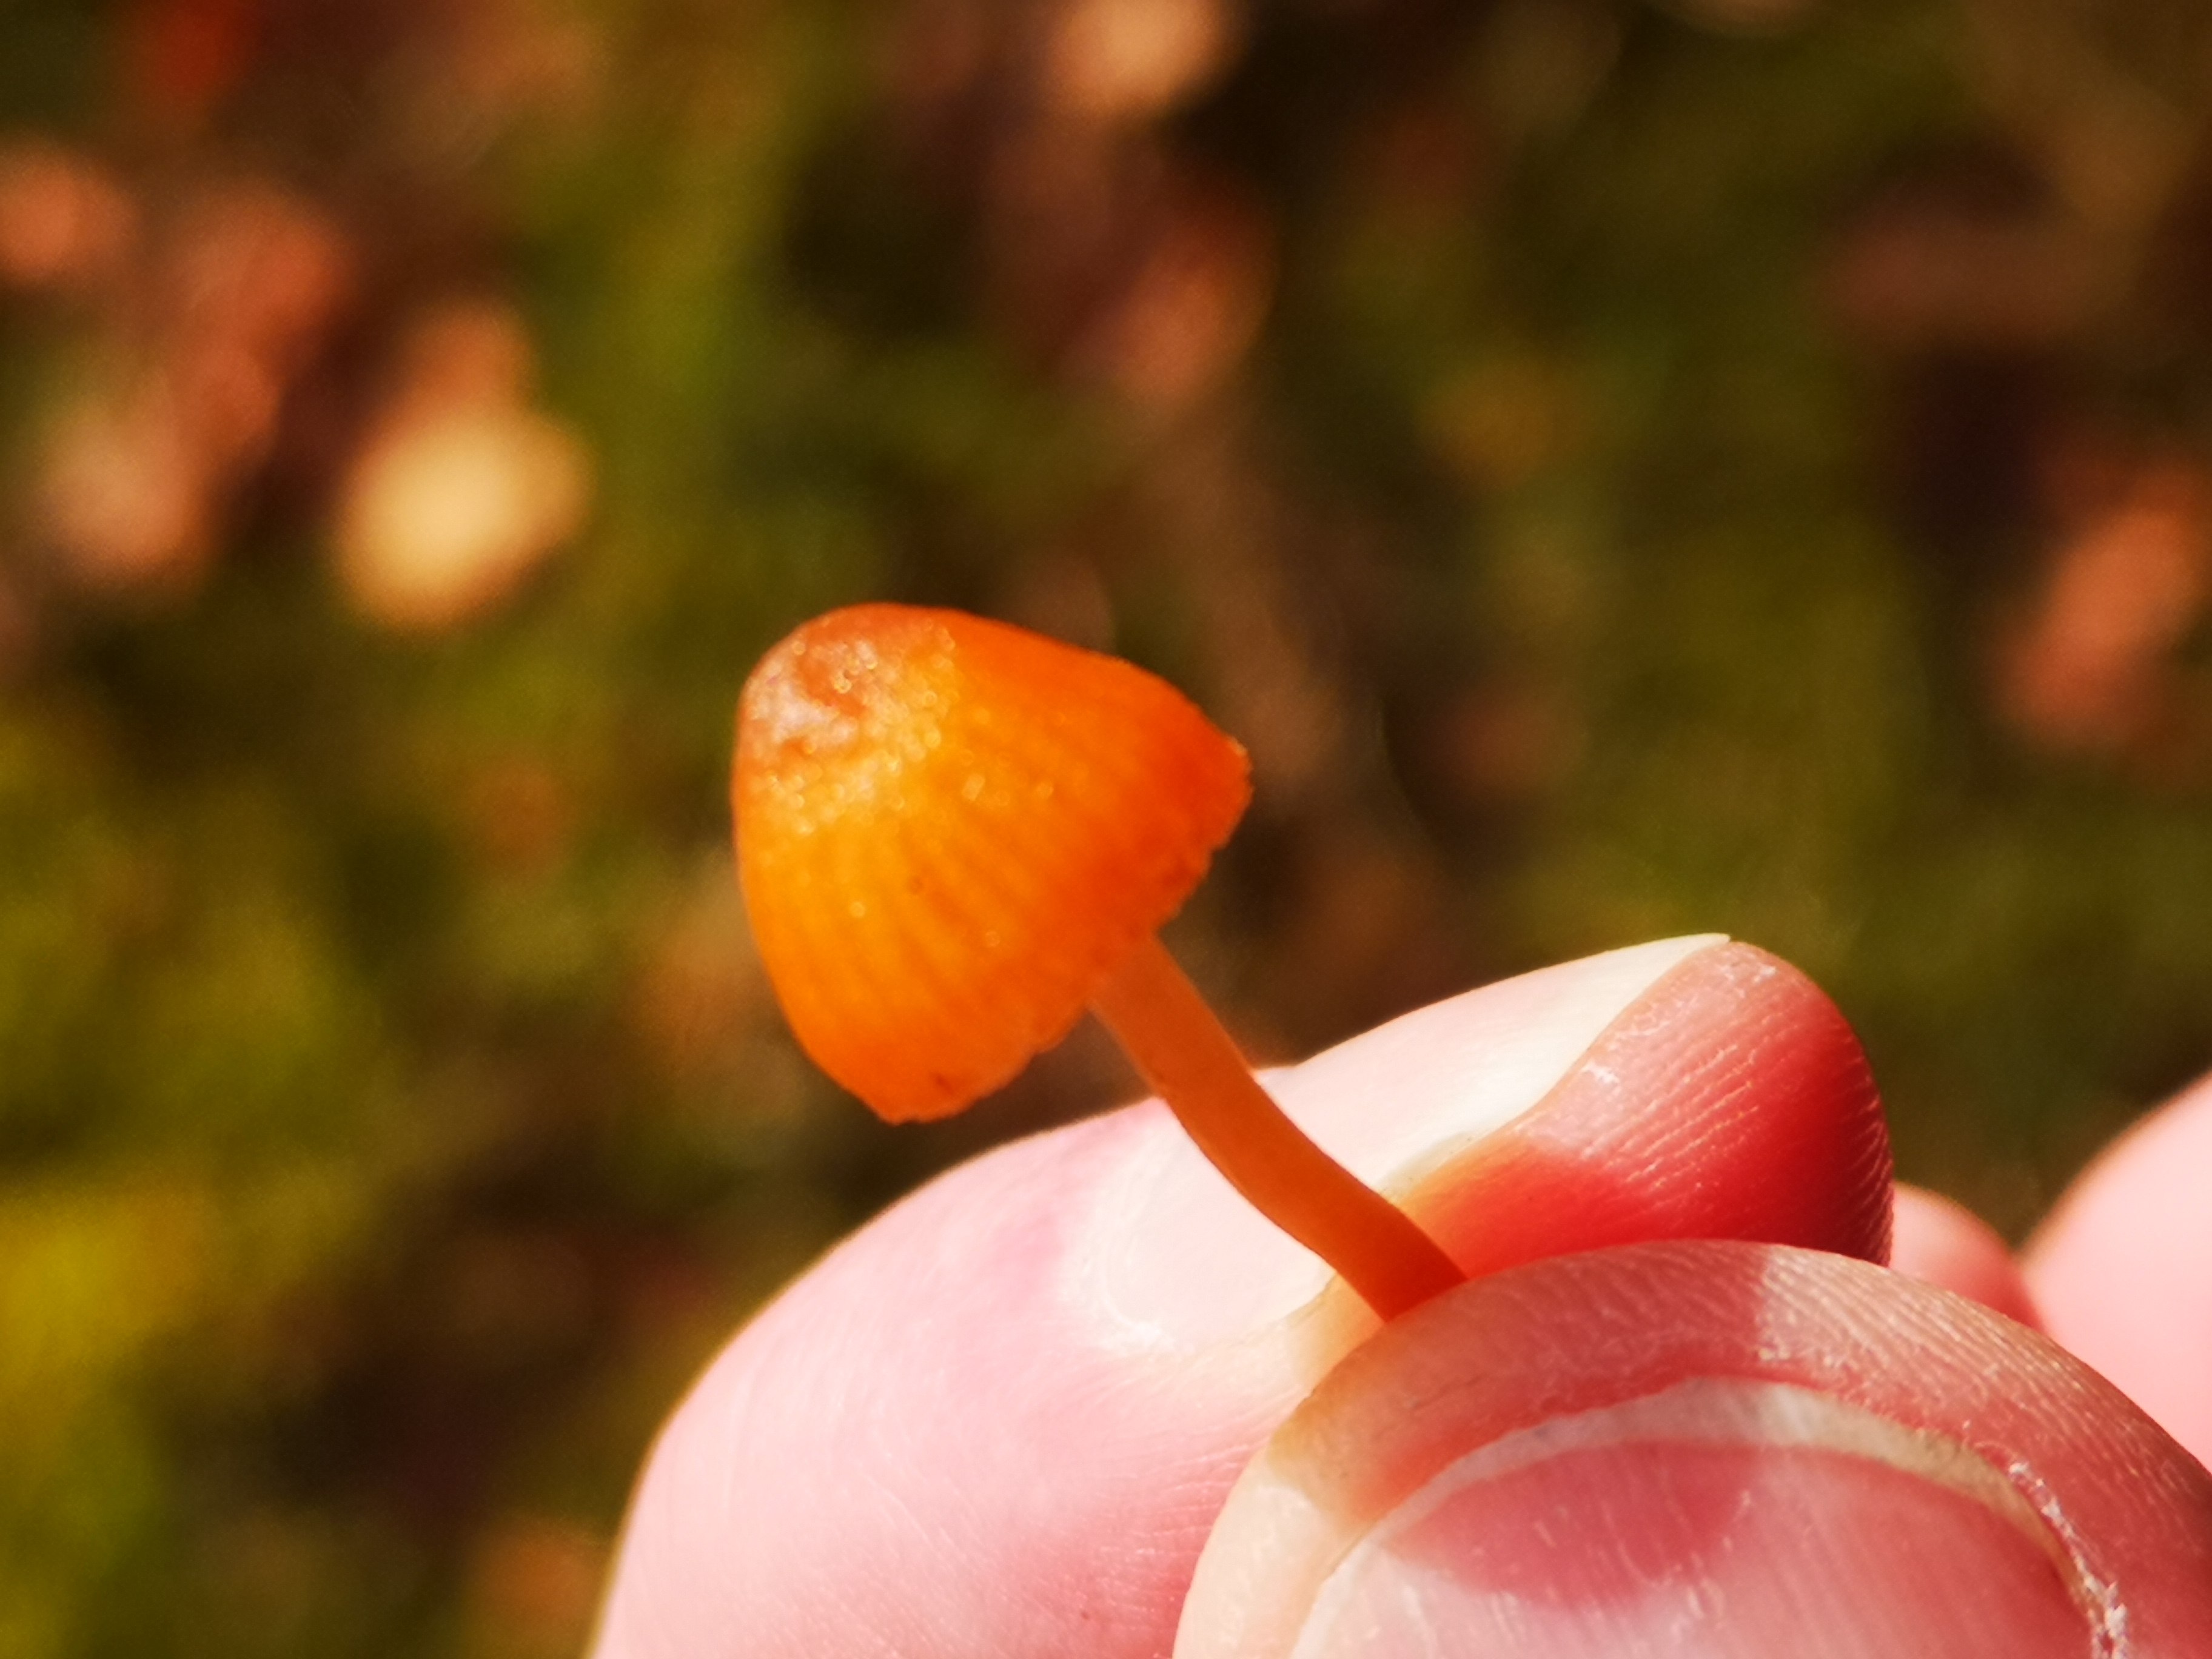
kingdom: Fungi
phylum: Basidiomycota
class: Agaricomycetes
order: Agaricales
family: Hymenogastraceae
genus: Galerina
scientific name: Galerina
